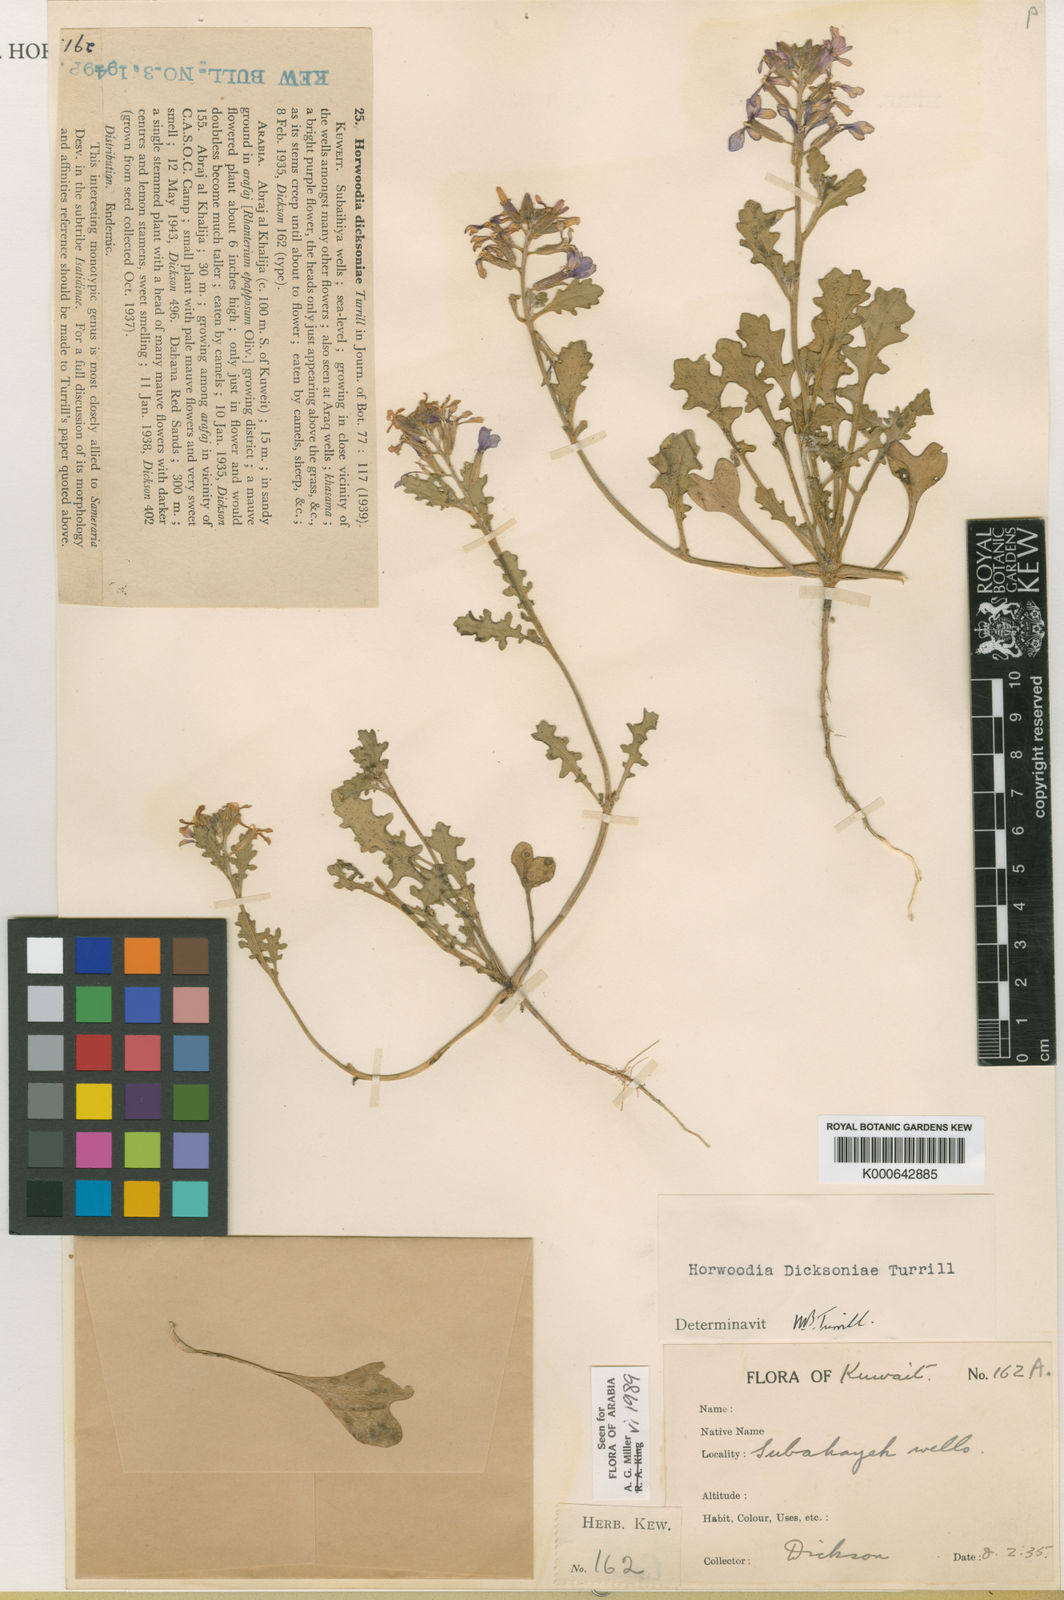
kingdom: Plantae
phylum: Tracheophyta
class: Magnoliopsida
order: Brassicales
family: Brassicaceae
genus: Horwoodia
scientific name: Horwoodia dicksoniae
